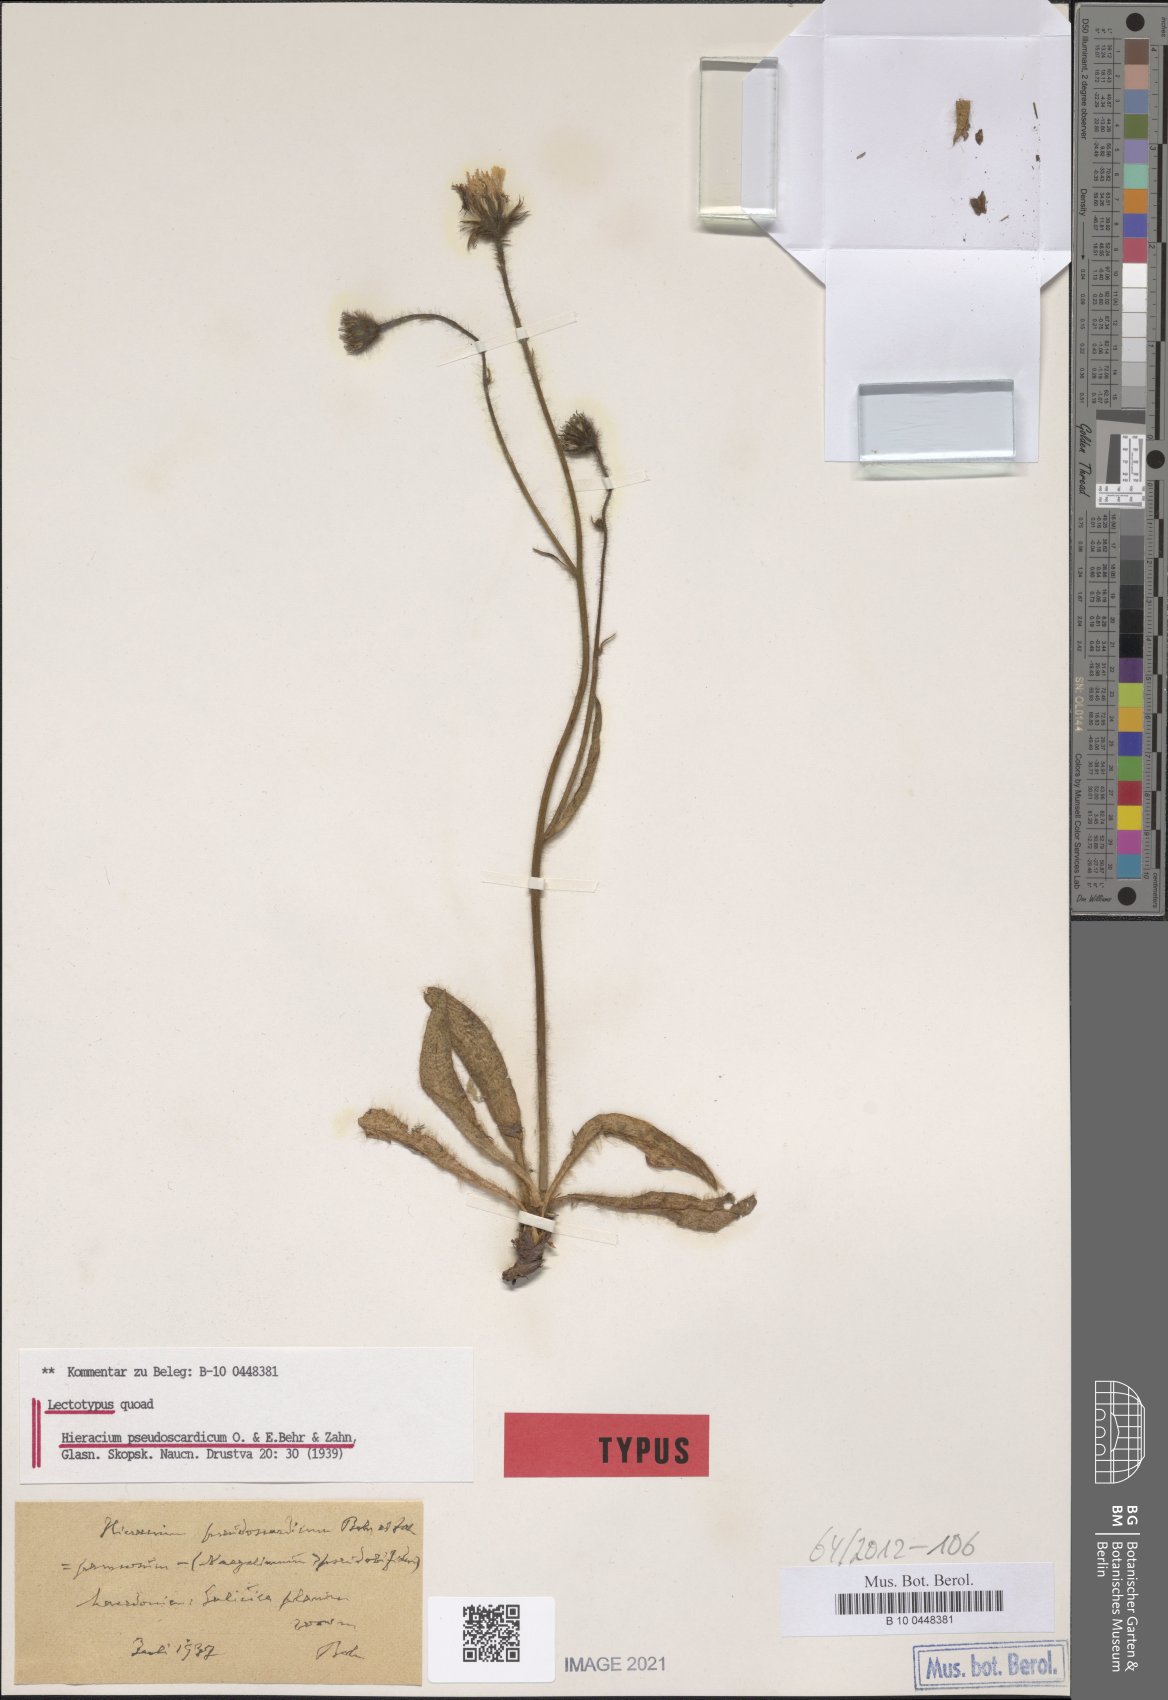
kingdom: Plantae
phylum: Tracheophyta
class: Magnoliopsida
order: Asterales
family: Asteraceae
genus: Hieracium
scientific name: Hieracium pseudoscardicum
